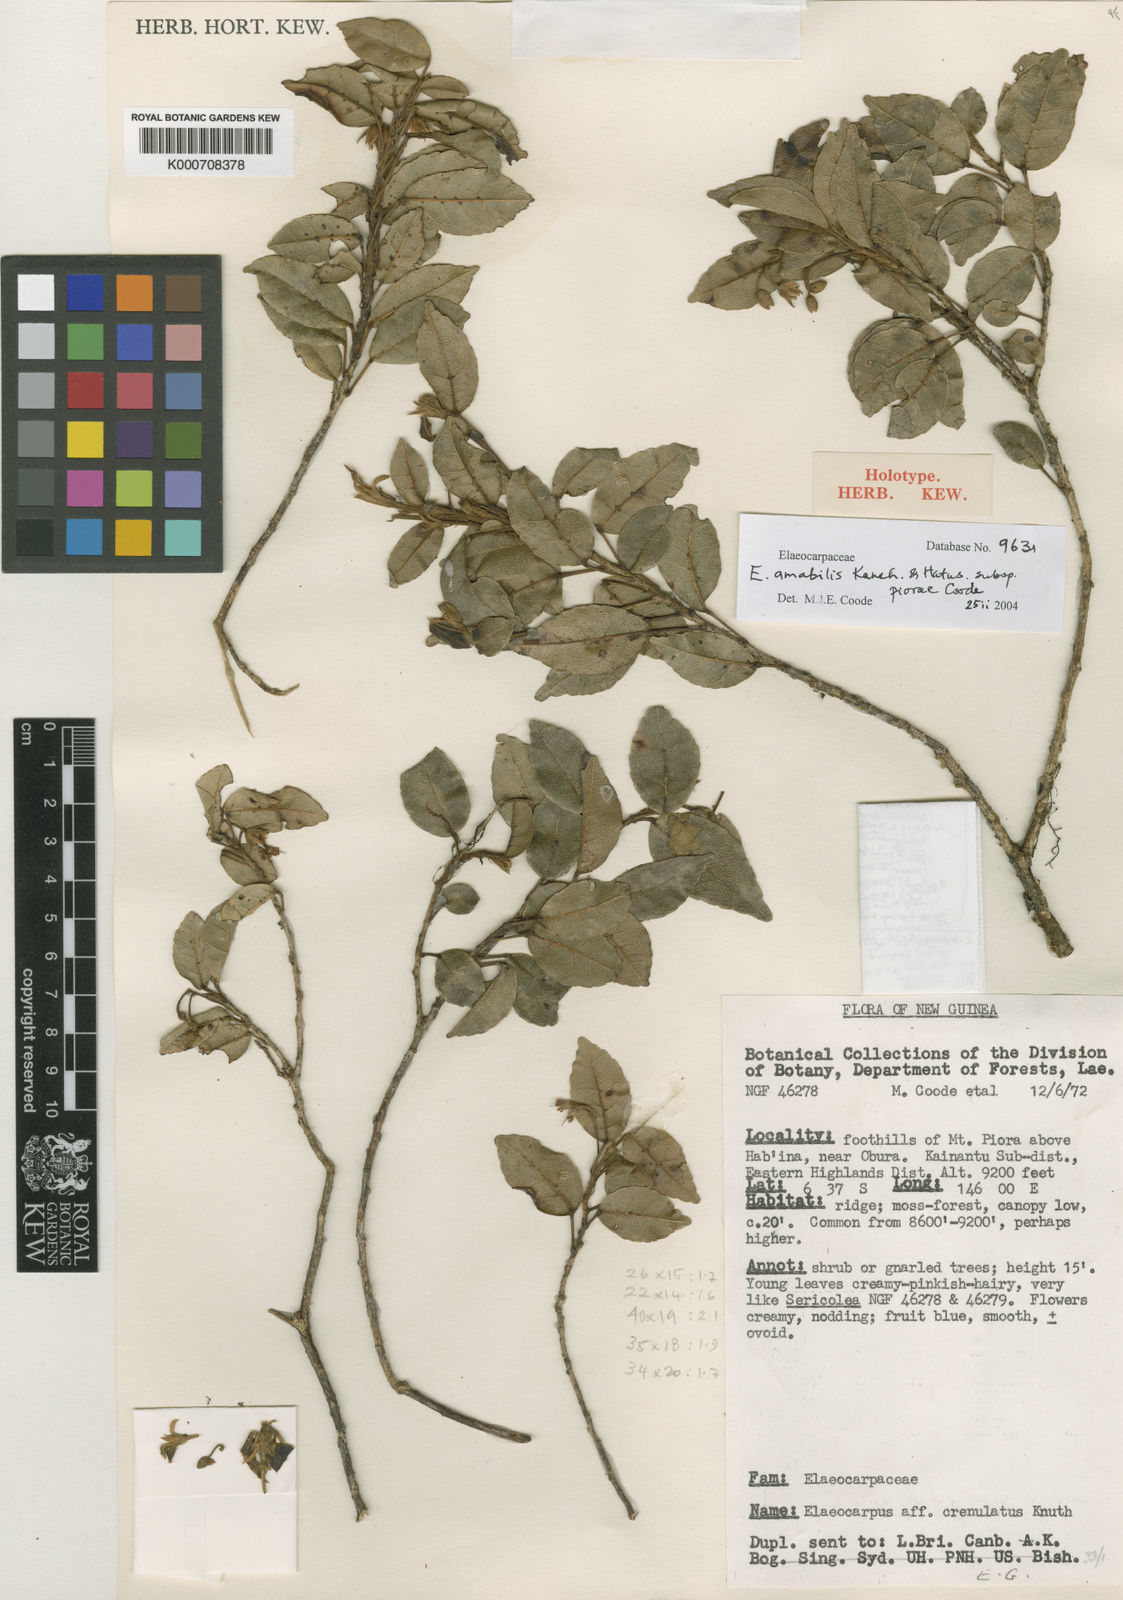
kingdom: Plantae
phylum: Tracheophyta
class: Magnoliopsida
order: Oxalidales
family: Elaeocarpaceae
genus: Elaeocarpus
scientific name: Elaeocarpus amabilis
